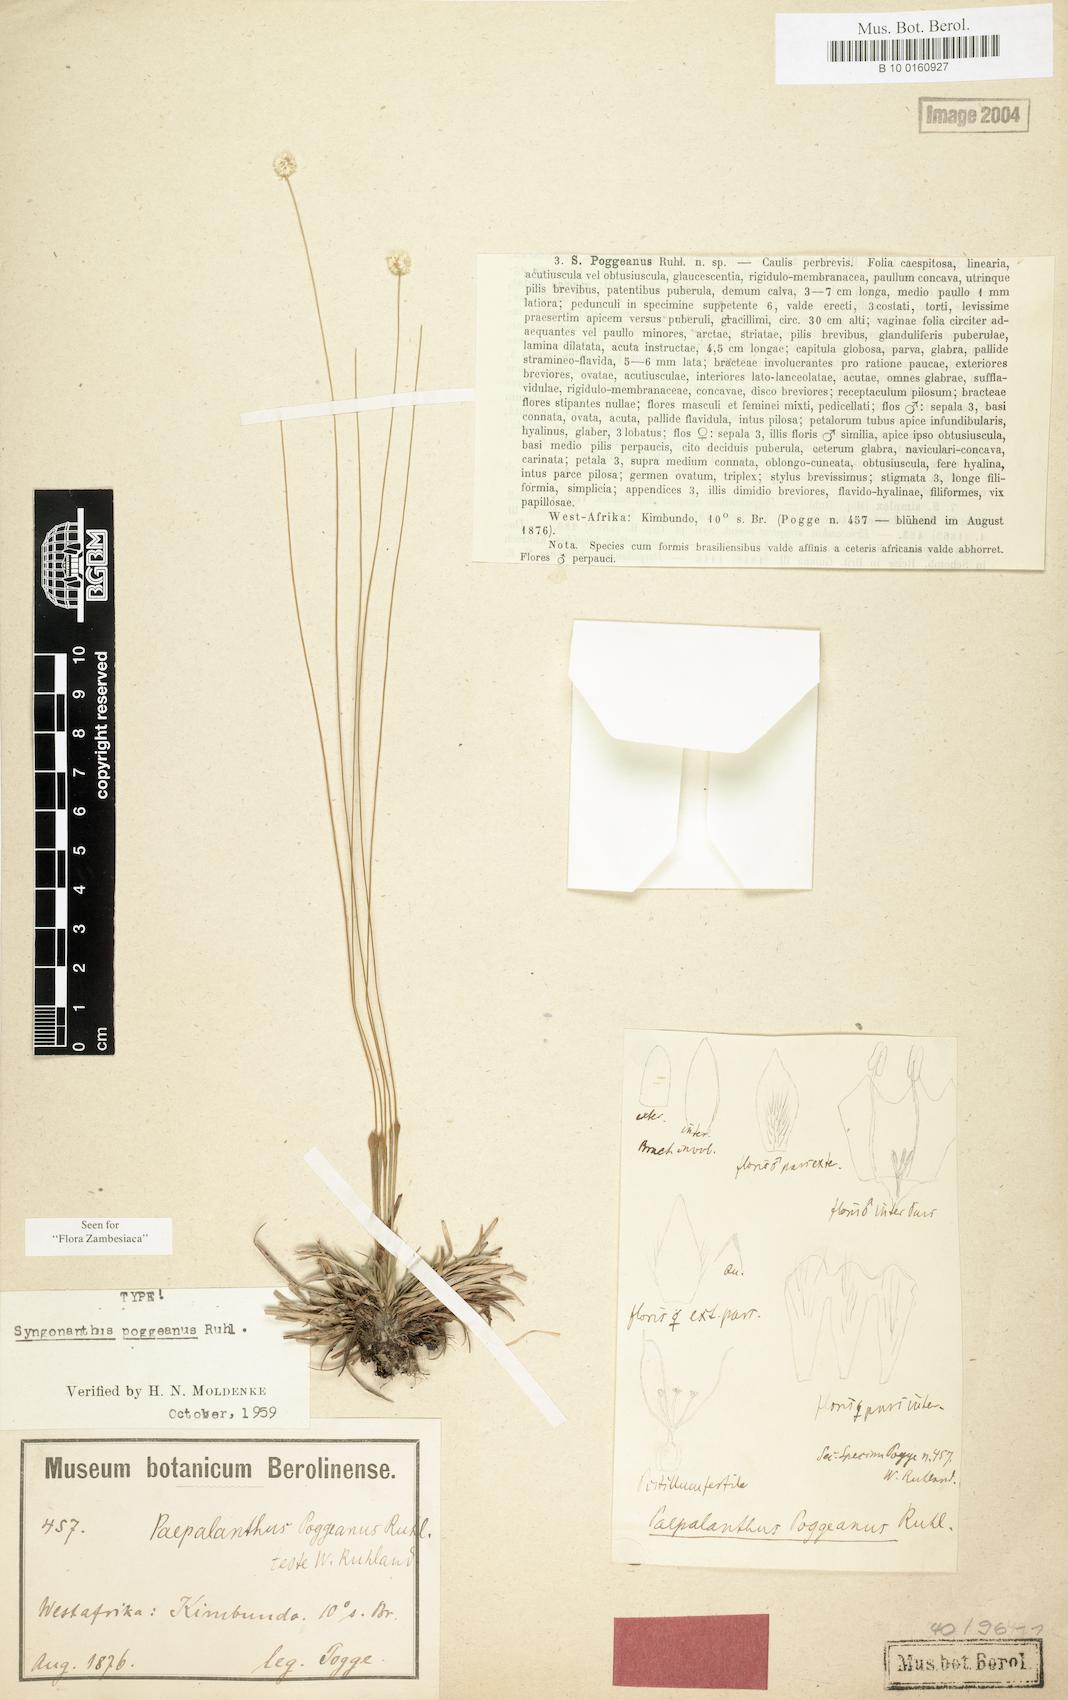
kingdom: Plantae
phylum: Tracheophyta
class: Liliopsida
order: Poales
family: Eriocaulaceae
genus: Syngonanthus
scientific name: Syngonanthus poggeanus
